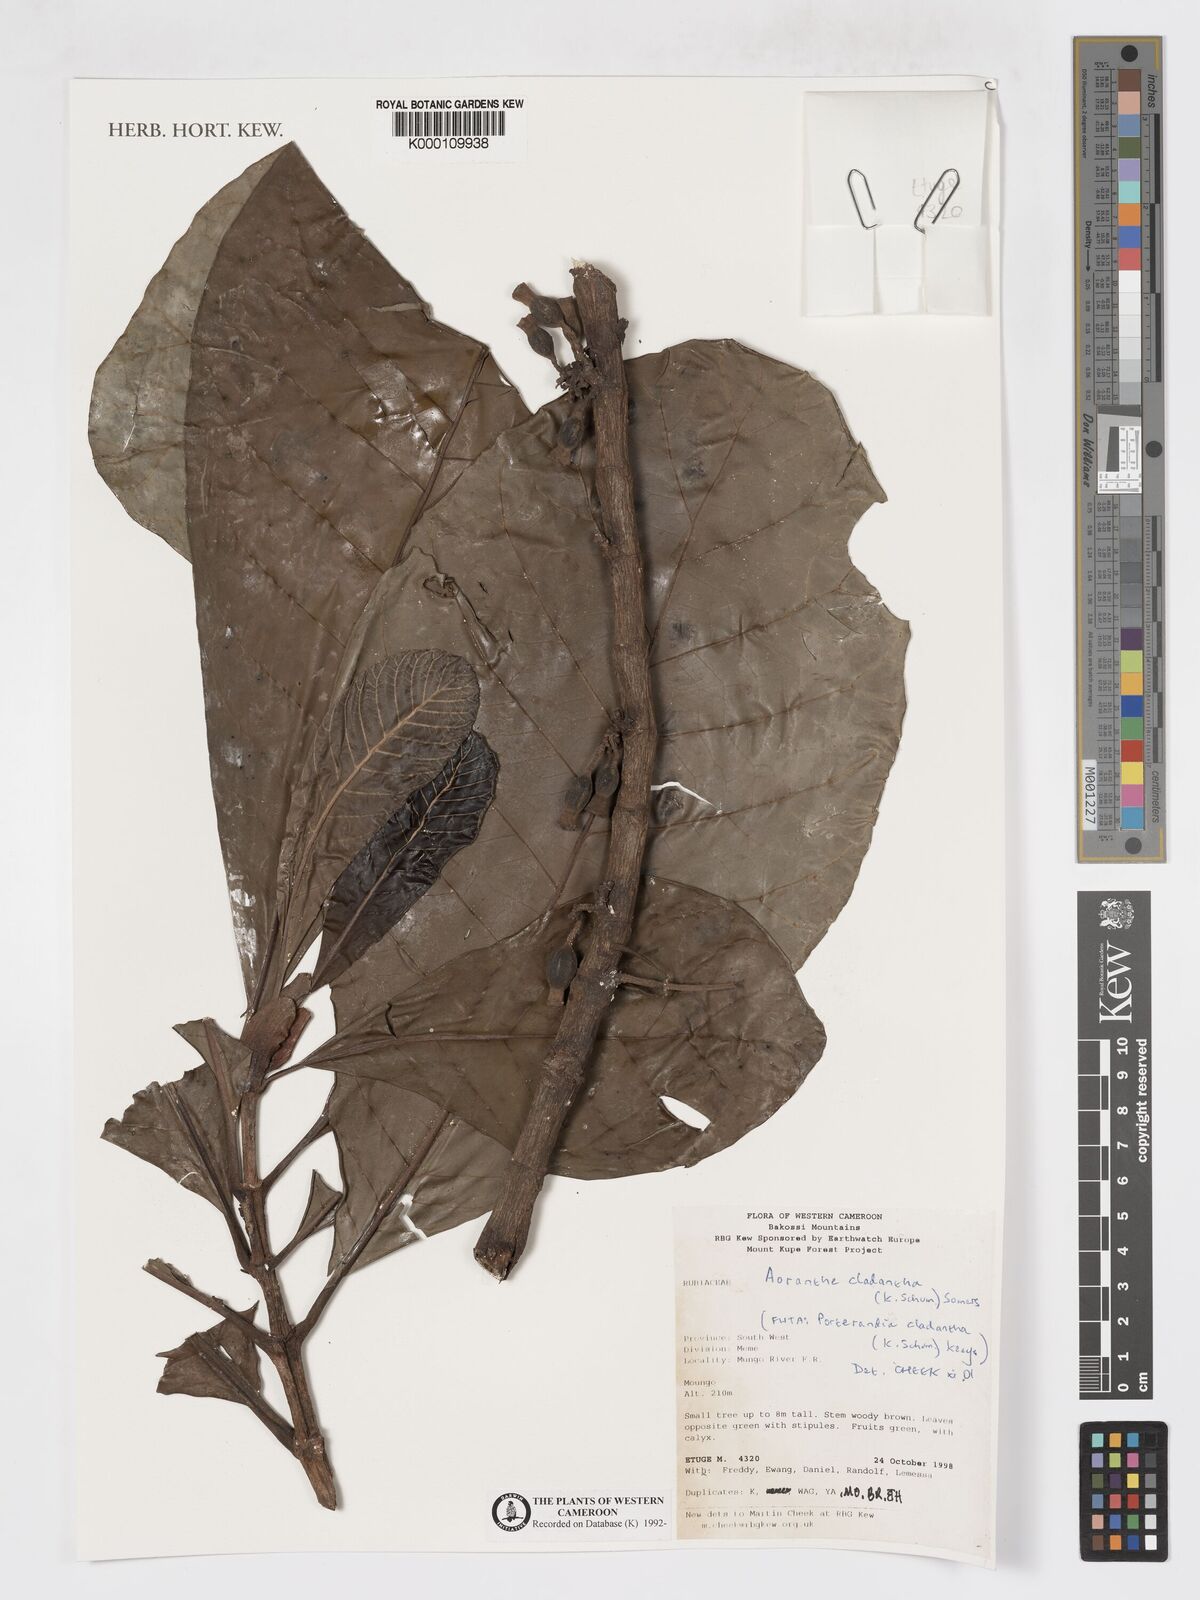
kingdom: Plantae
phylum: Tracheophyta
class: Magnoliopsida
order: Gentianales
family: Rubiaceae
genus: Aoranthe
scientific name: Aoranthe cladantha
